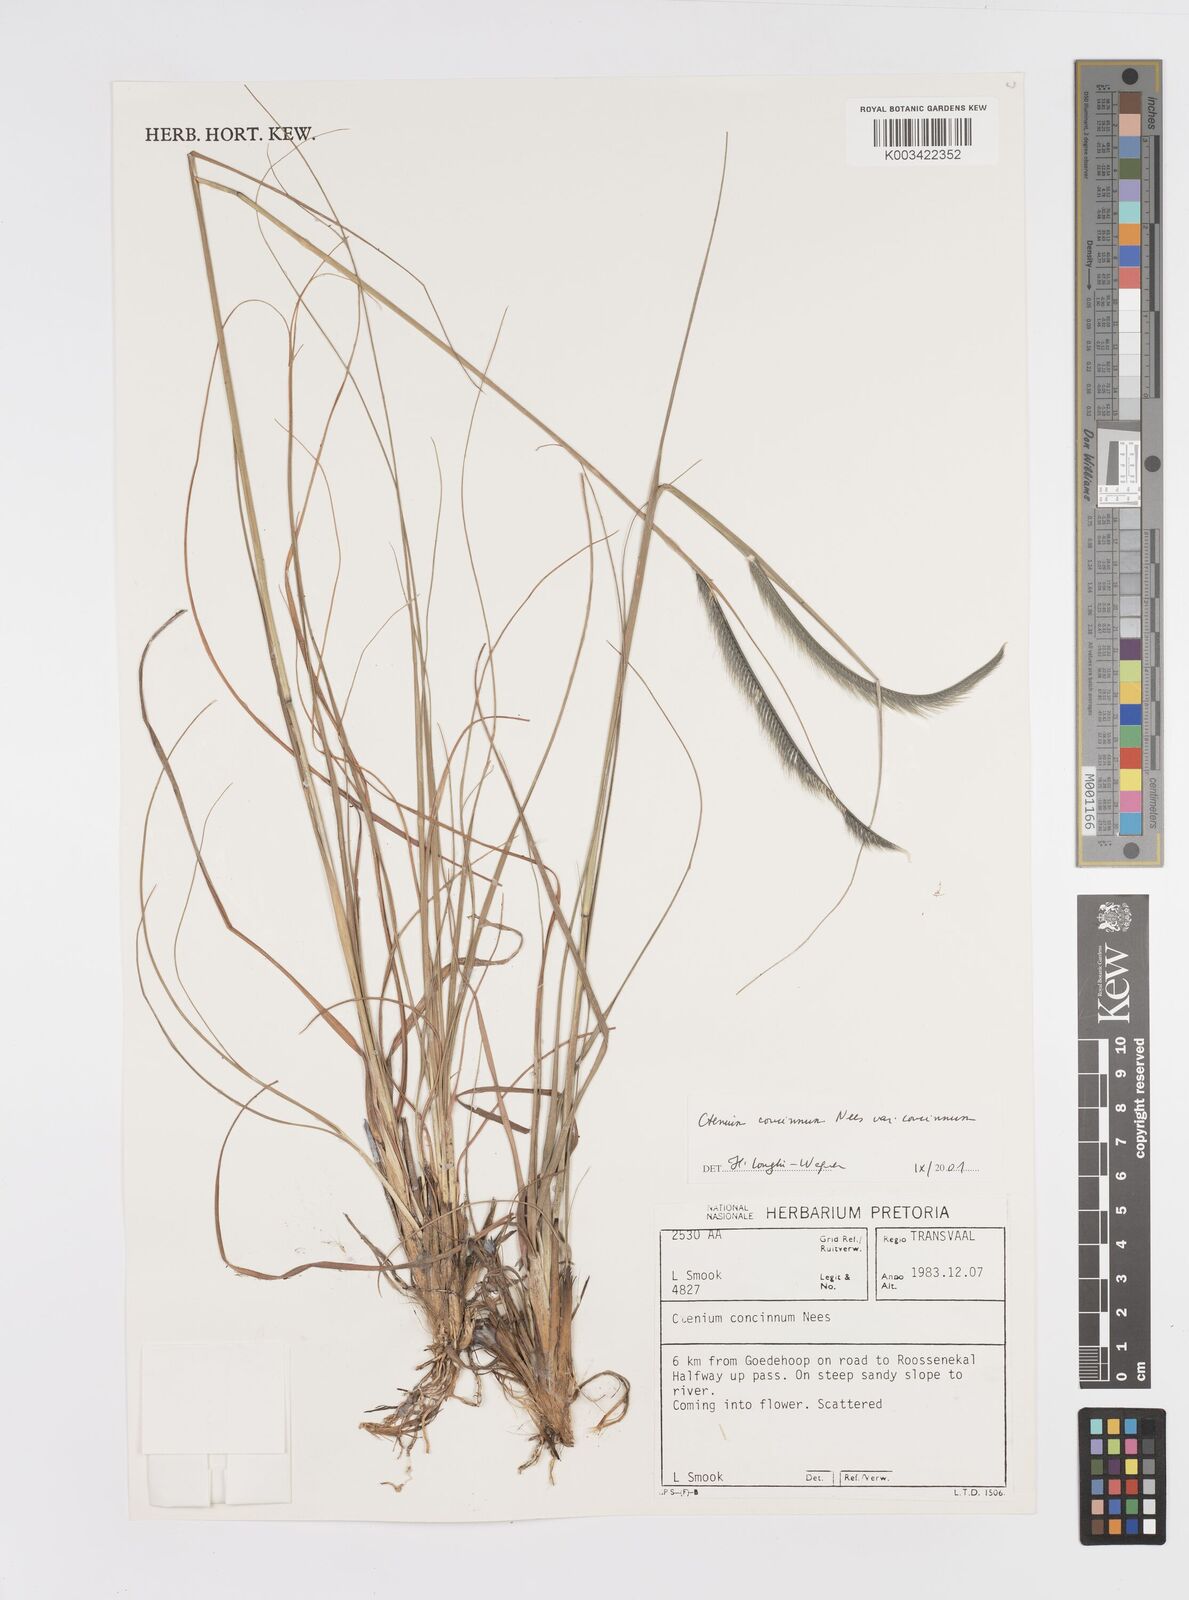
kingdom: Plantae
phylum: Tracheophyta
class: Liliopsida
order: Poales
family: Poaceae
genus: Ctenium
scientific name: Ctenium concinnum
